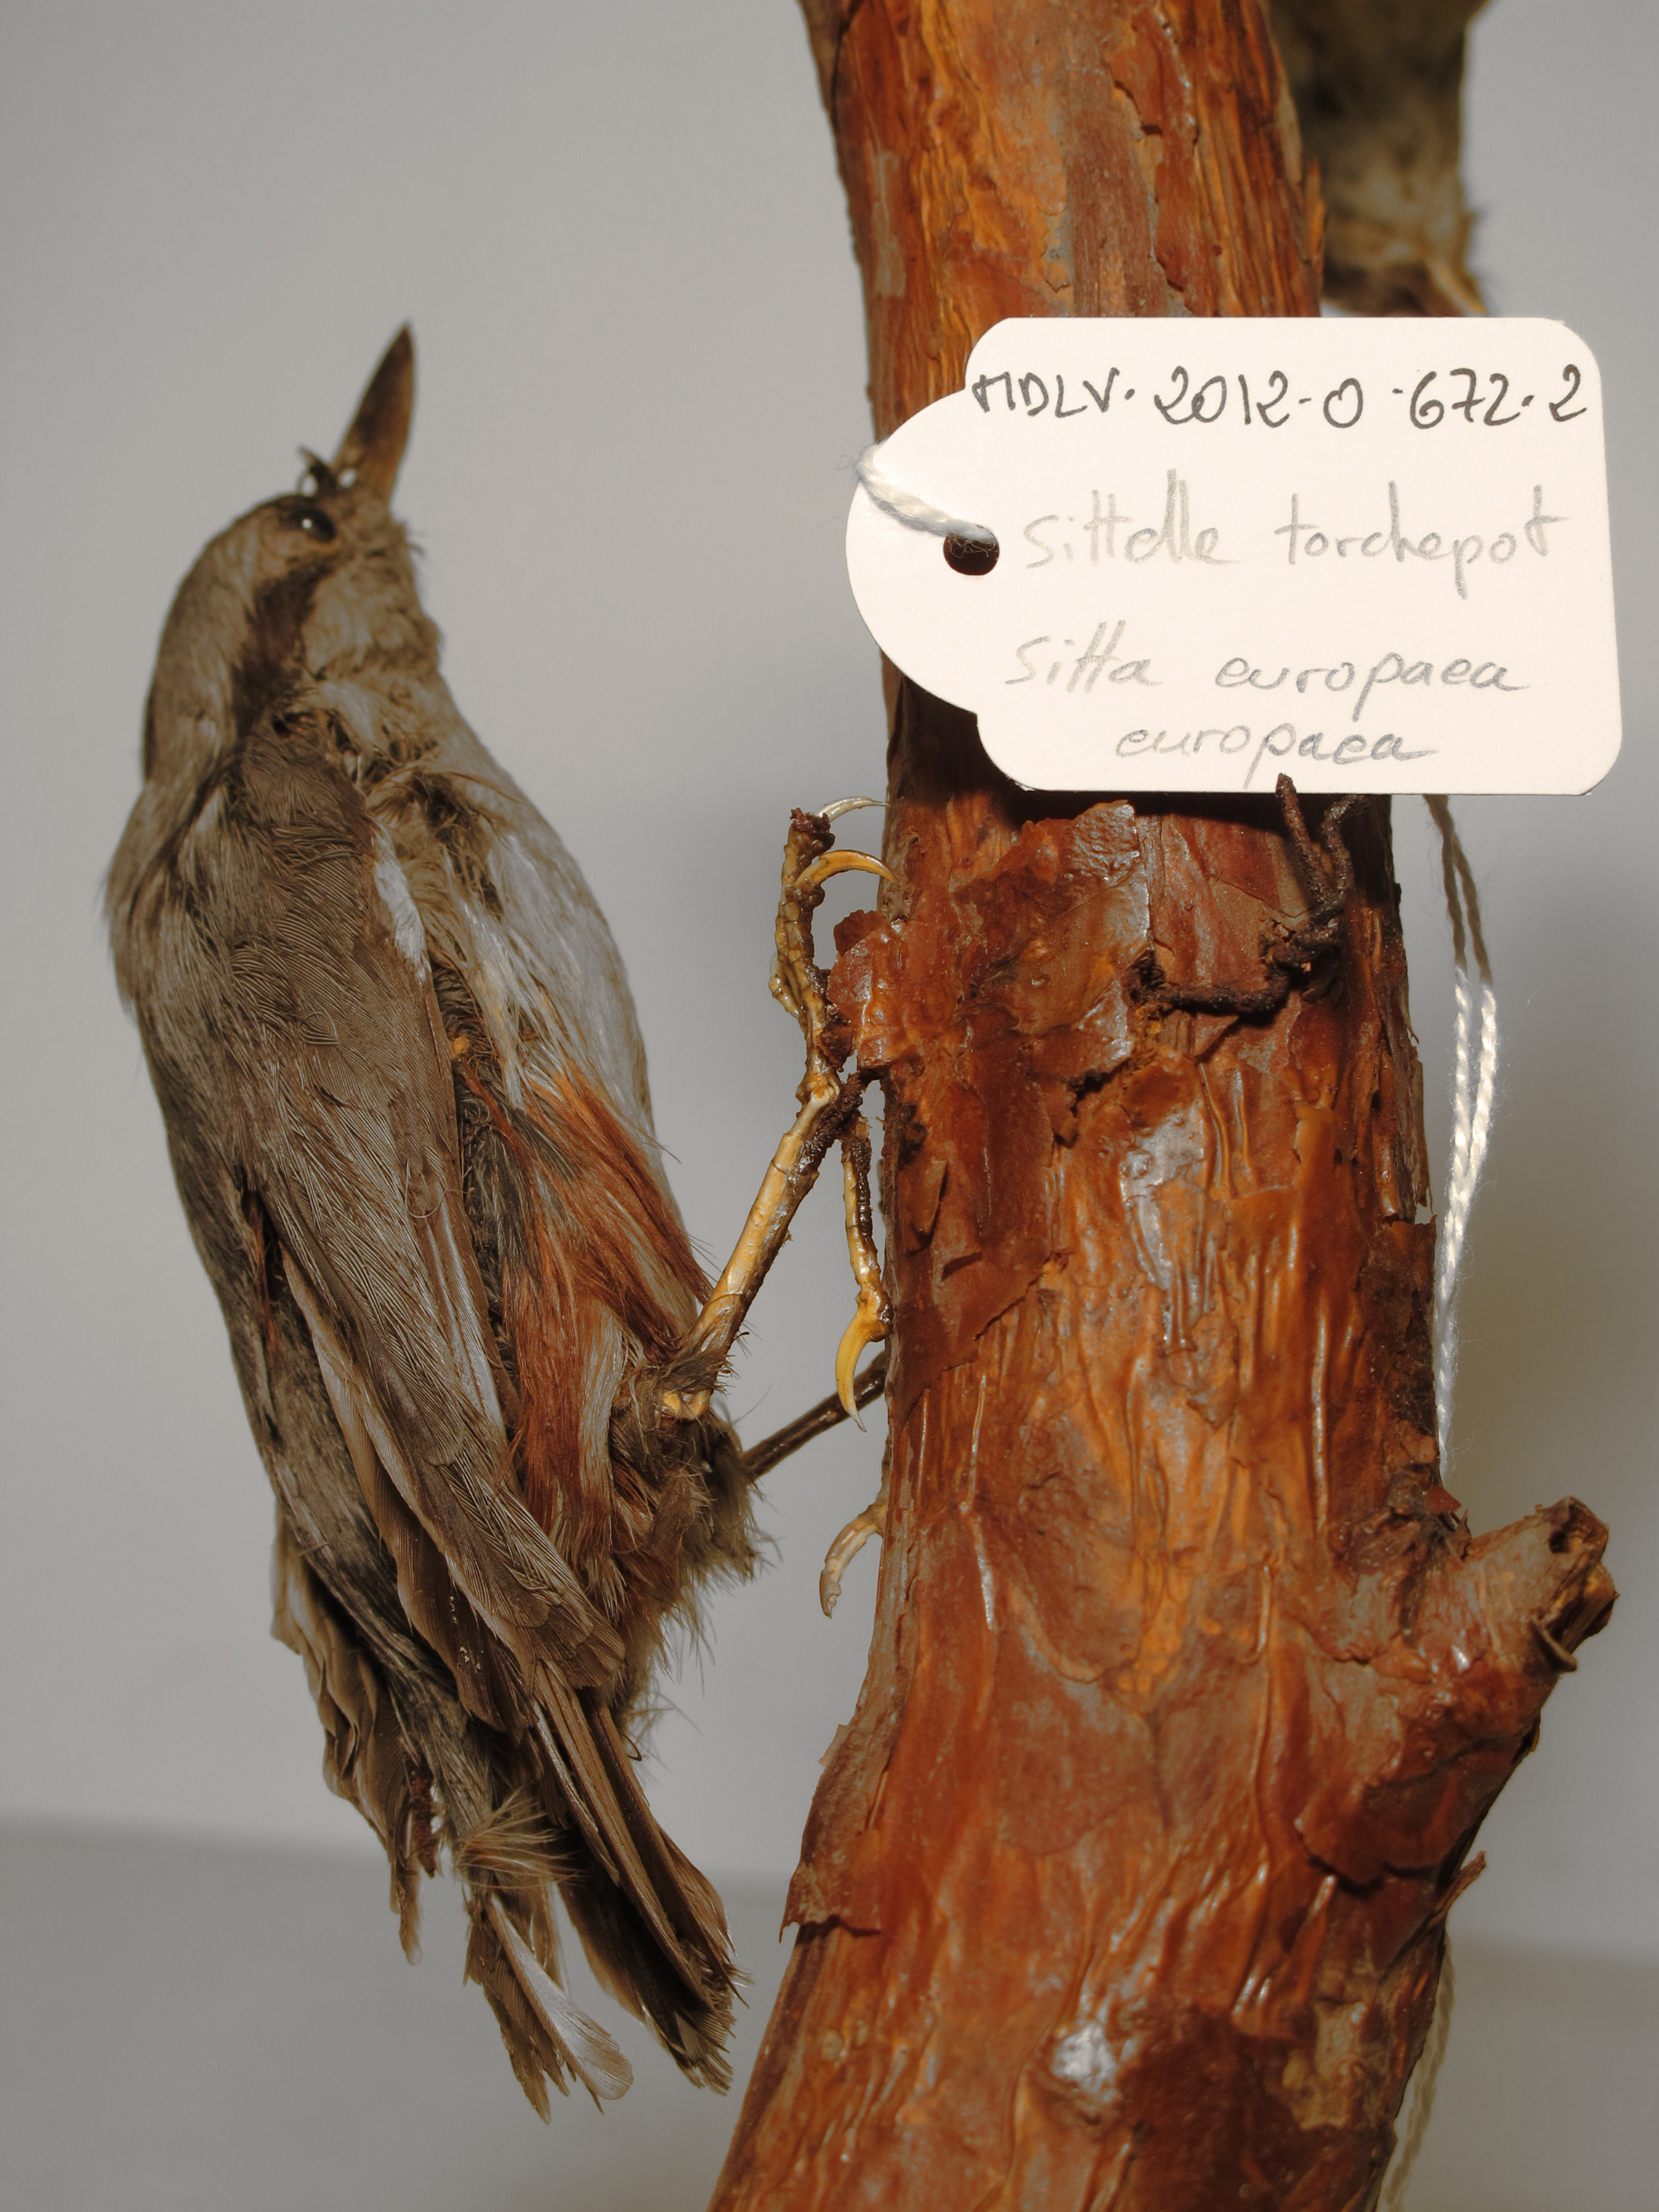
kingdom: Animalia
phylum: Chordata
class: Aves
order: Passeriformes
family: Sittidae
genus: Sitta
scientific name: Sitta europaea
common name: Eurasian Nuthatch
